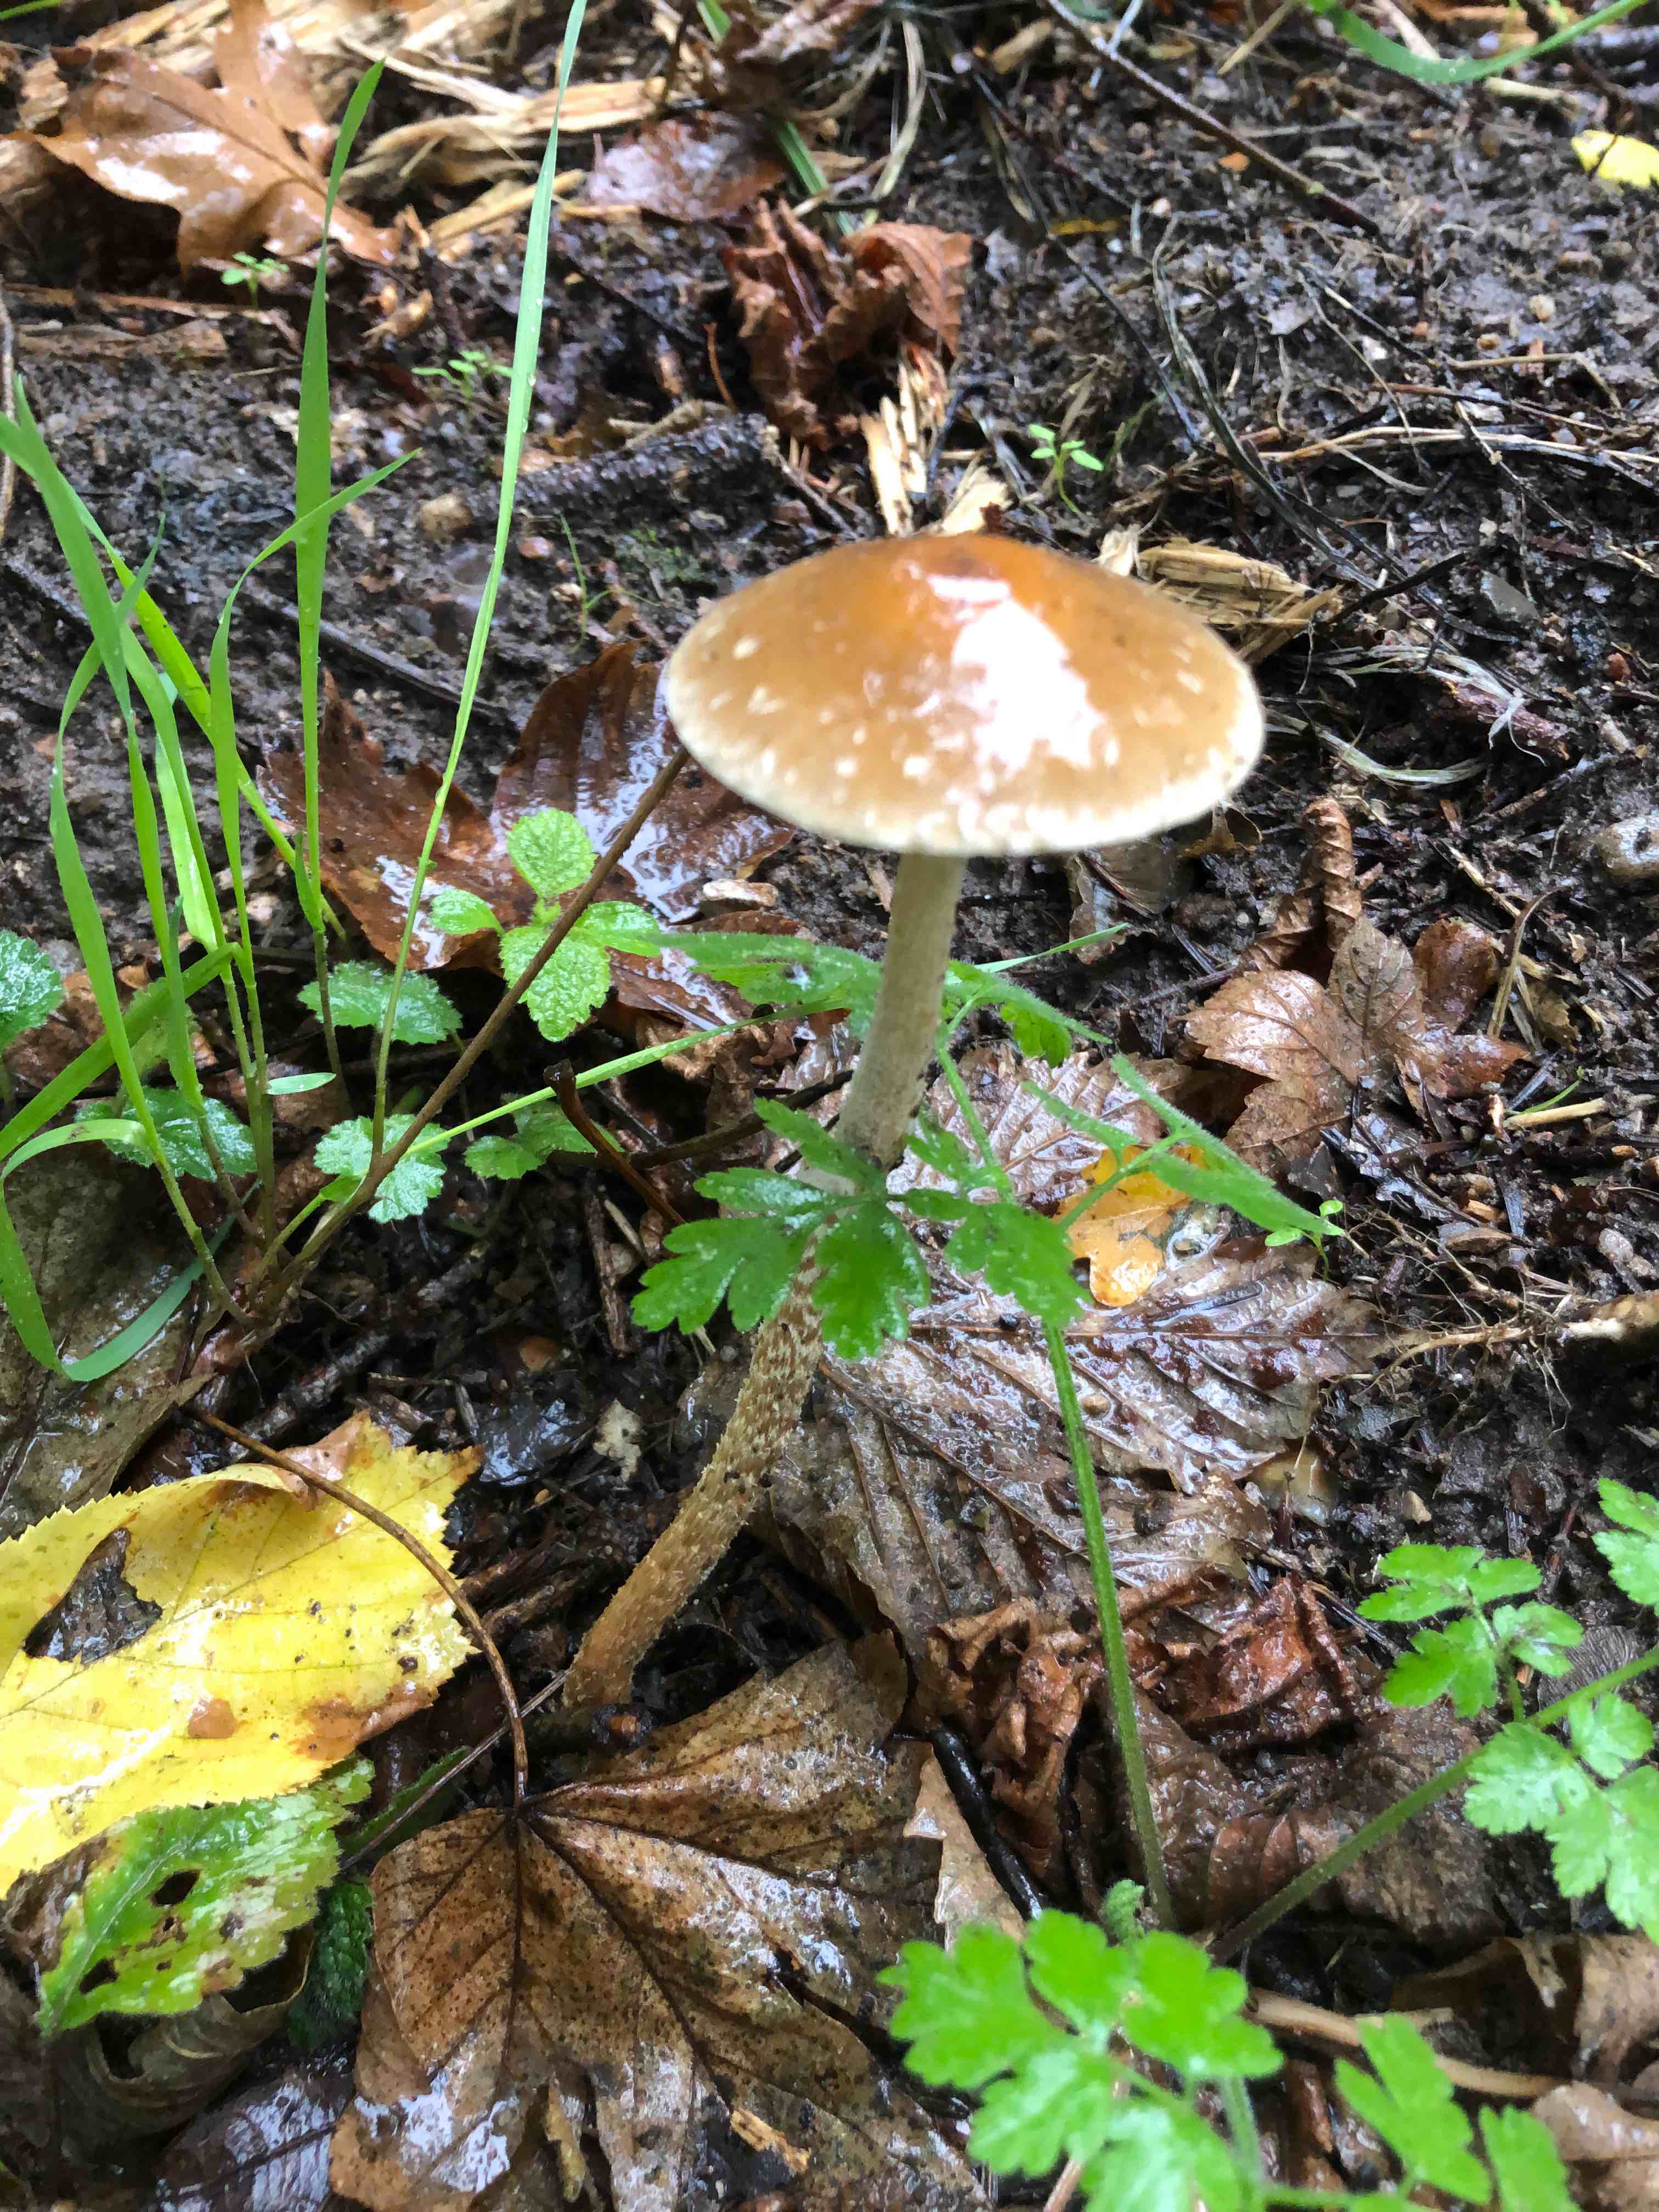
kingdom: Fungi
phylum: Basidiomycota
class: Agaricomycetes
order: Agaricales
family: Strophariaceae
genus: Leratiomyces
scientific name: Leratiomyces squamosus
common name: skællet bredblad
